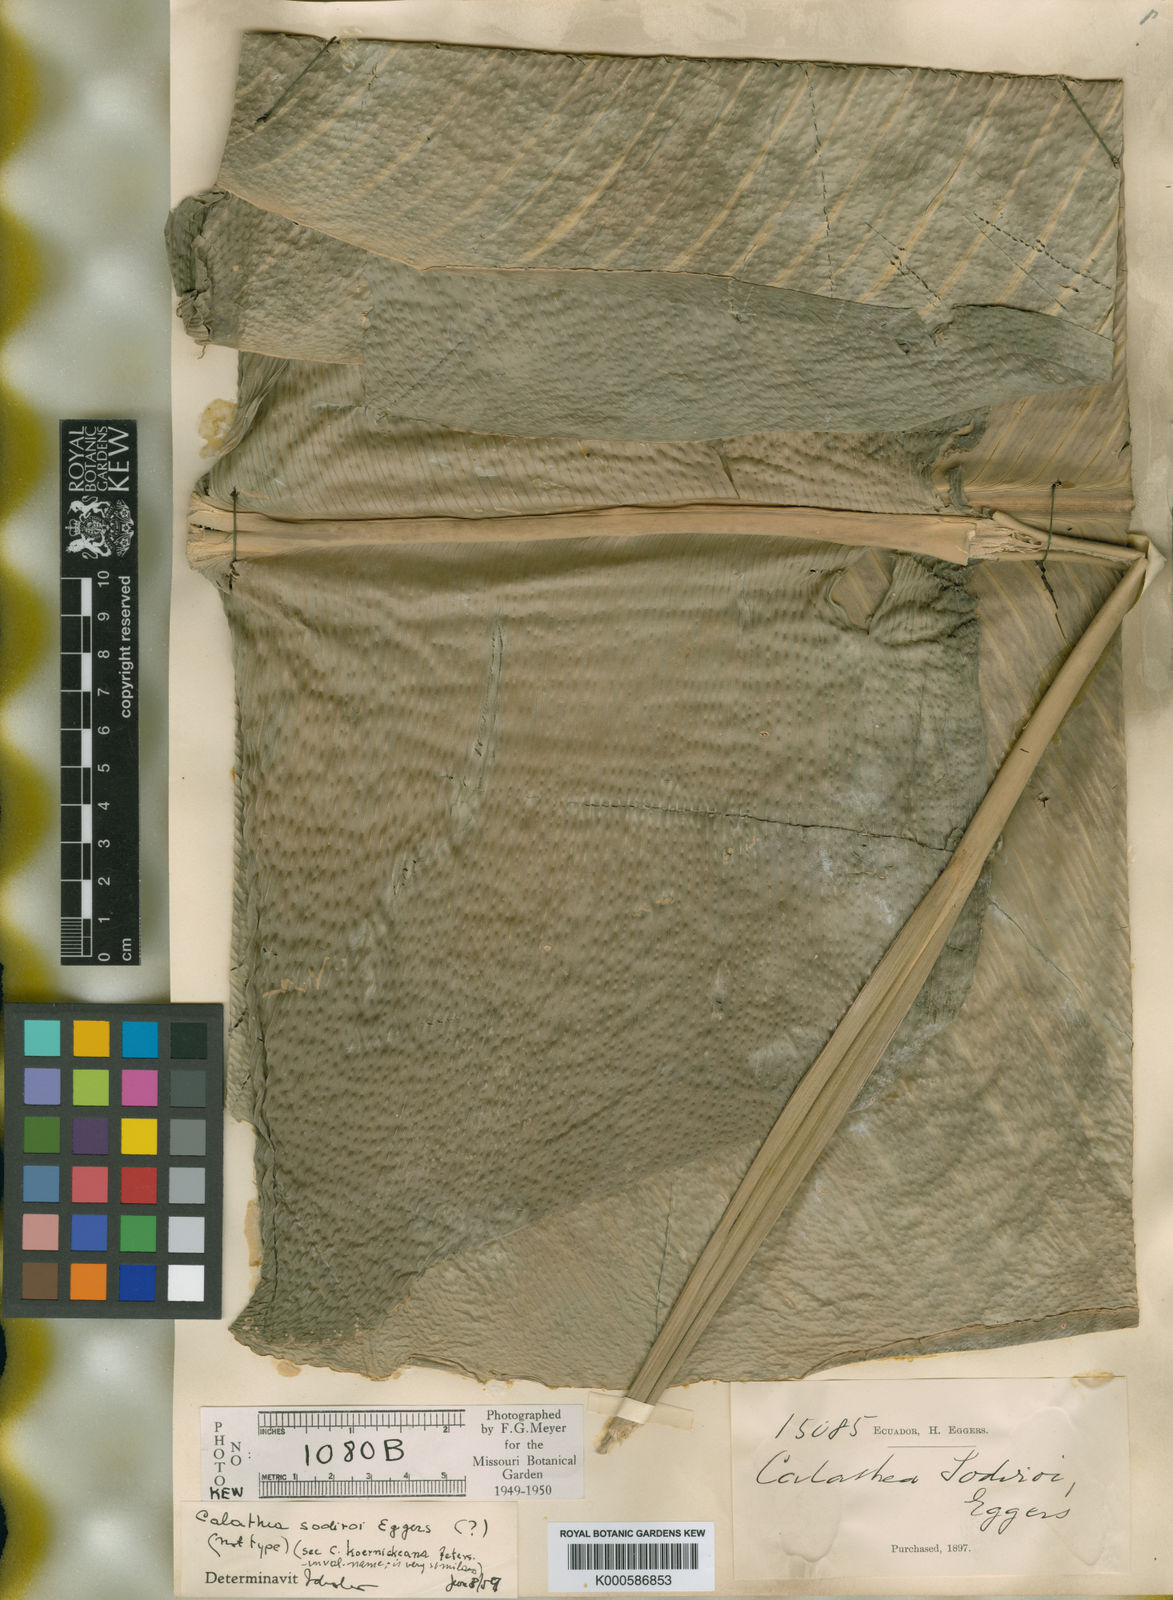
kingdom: Plantae
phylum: Tracheophyta
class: Liliopsida
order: Zingiberales
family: Marantaceae
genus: Goeppertia
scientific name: Goeppertia pachystachya
